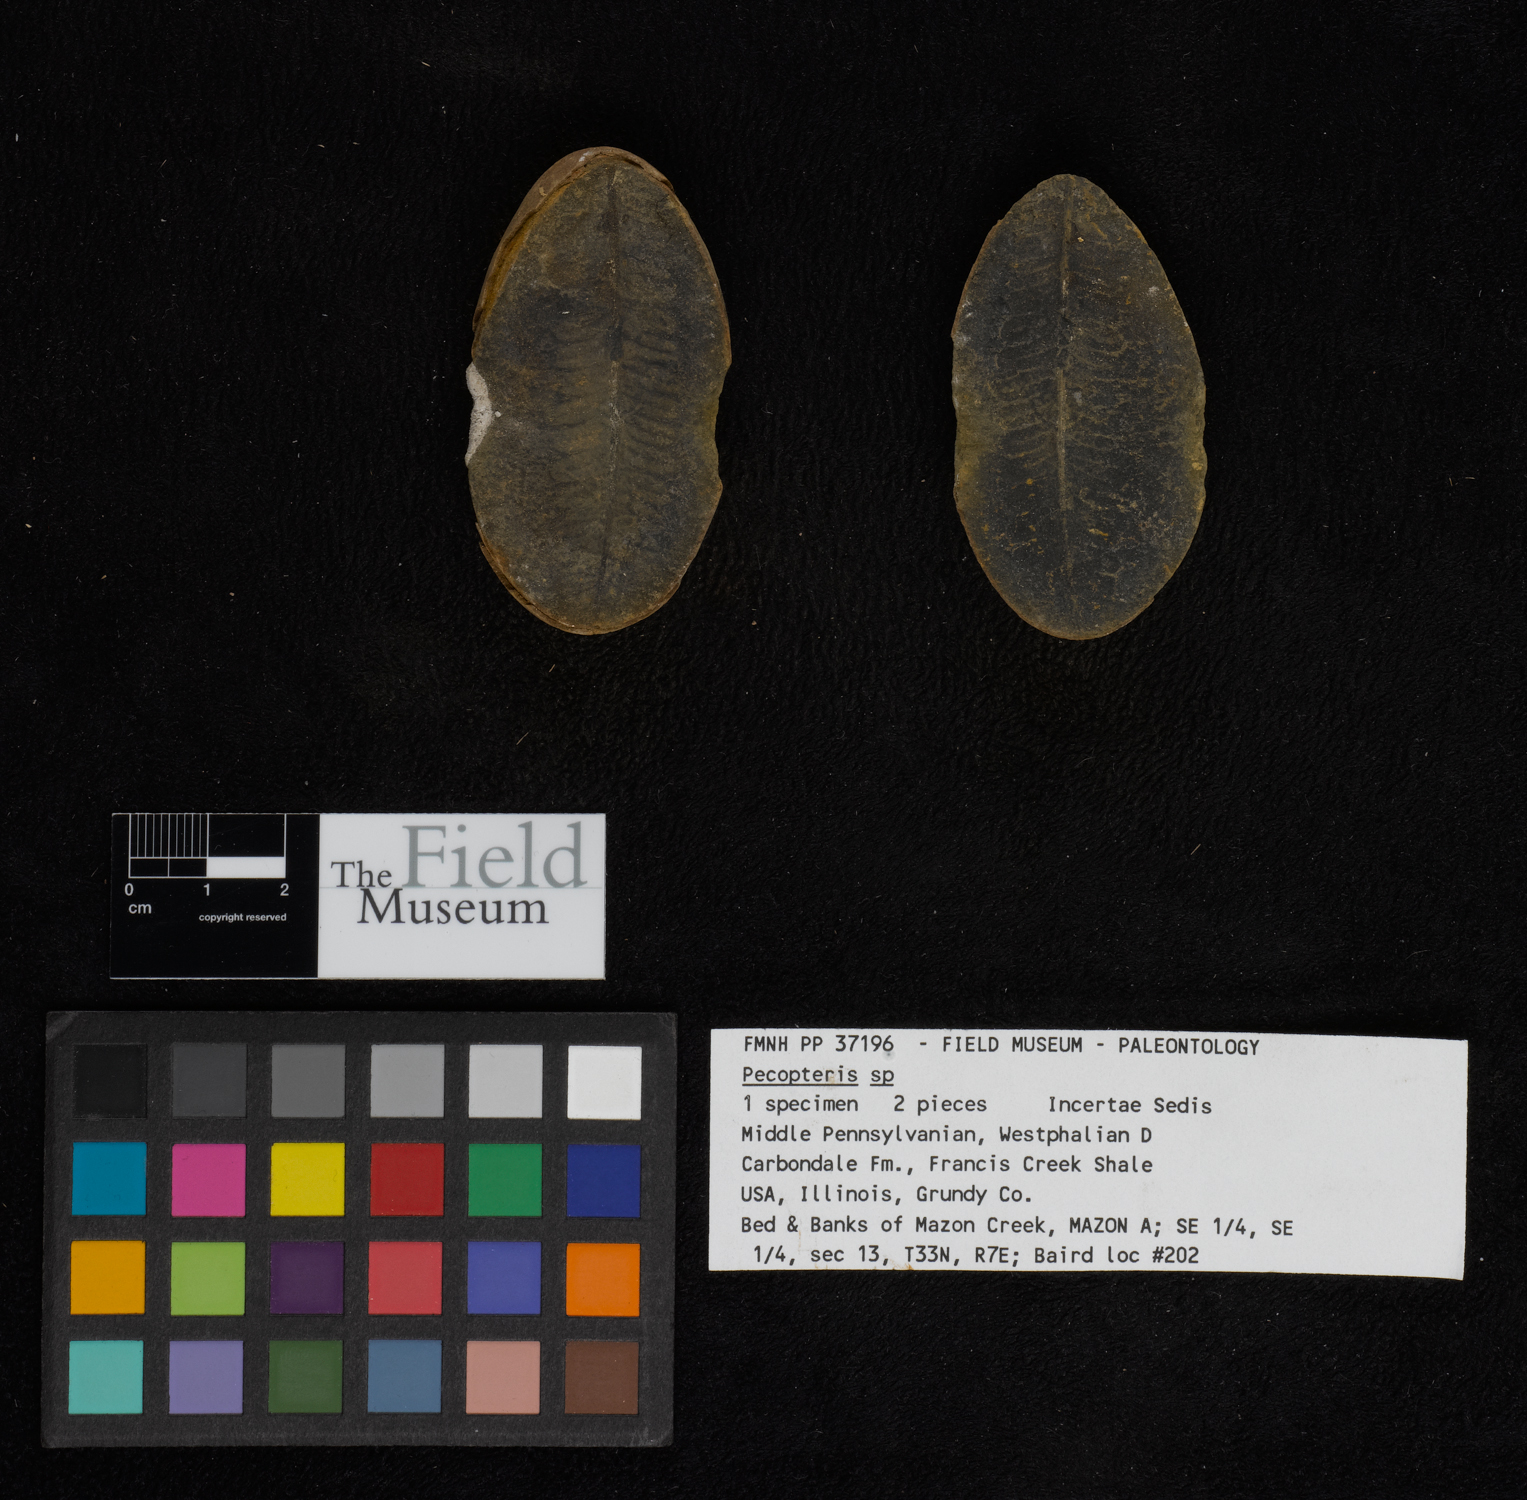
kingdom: Plantae
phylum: Tracheophyta
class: Polypodiopsida
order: Marattiales
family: Asterothecaceae
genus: Pecopteris
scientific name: Pecopteris
